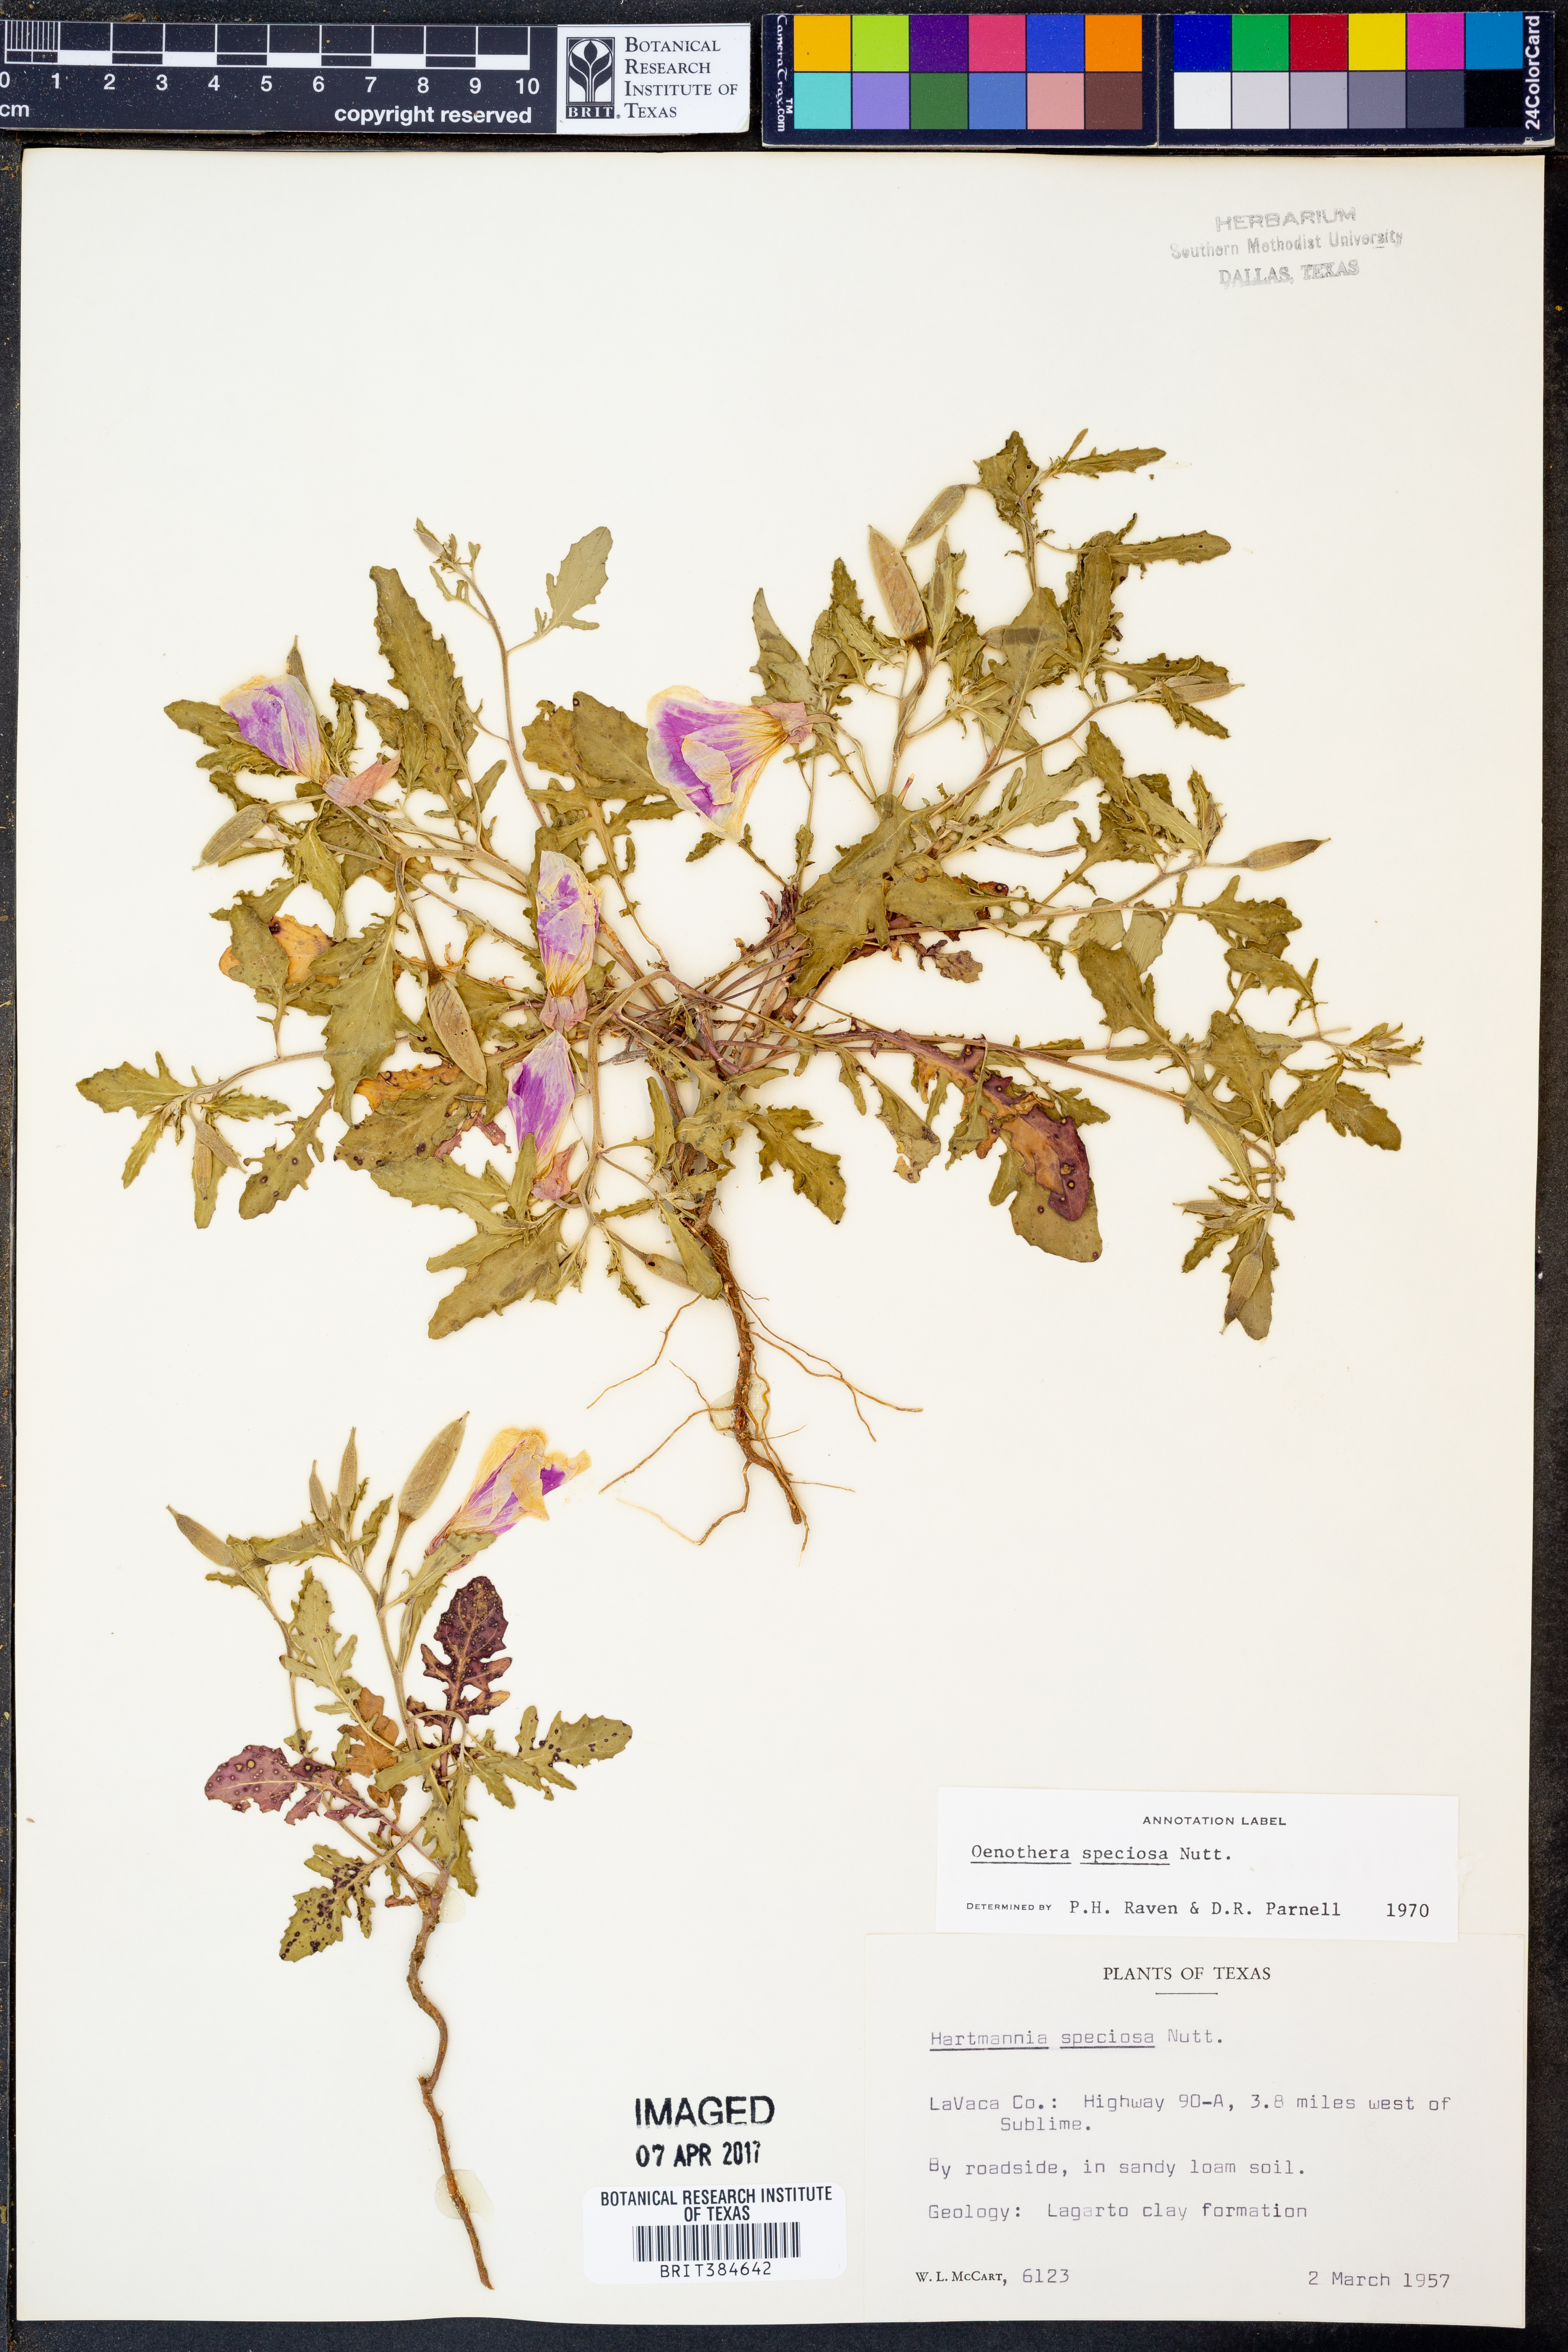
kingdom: Plantae
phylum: Tracheophyta
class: Magnoliopsida
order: Myrtales
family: Onagraceae
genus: Oenothera
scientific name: Oenothera speciosa
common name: White evening-primrose
